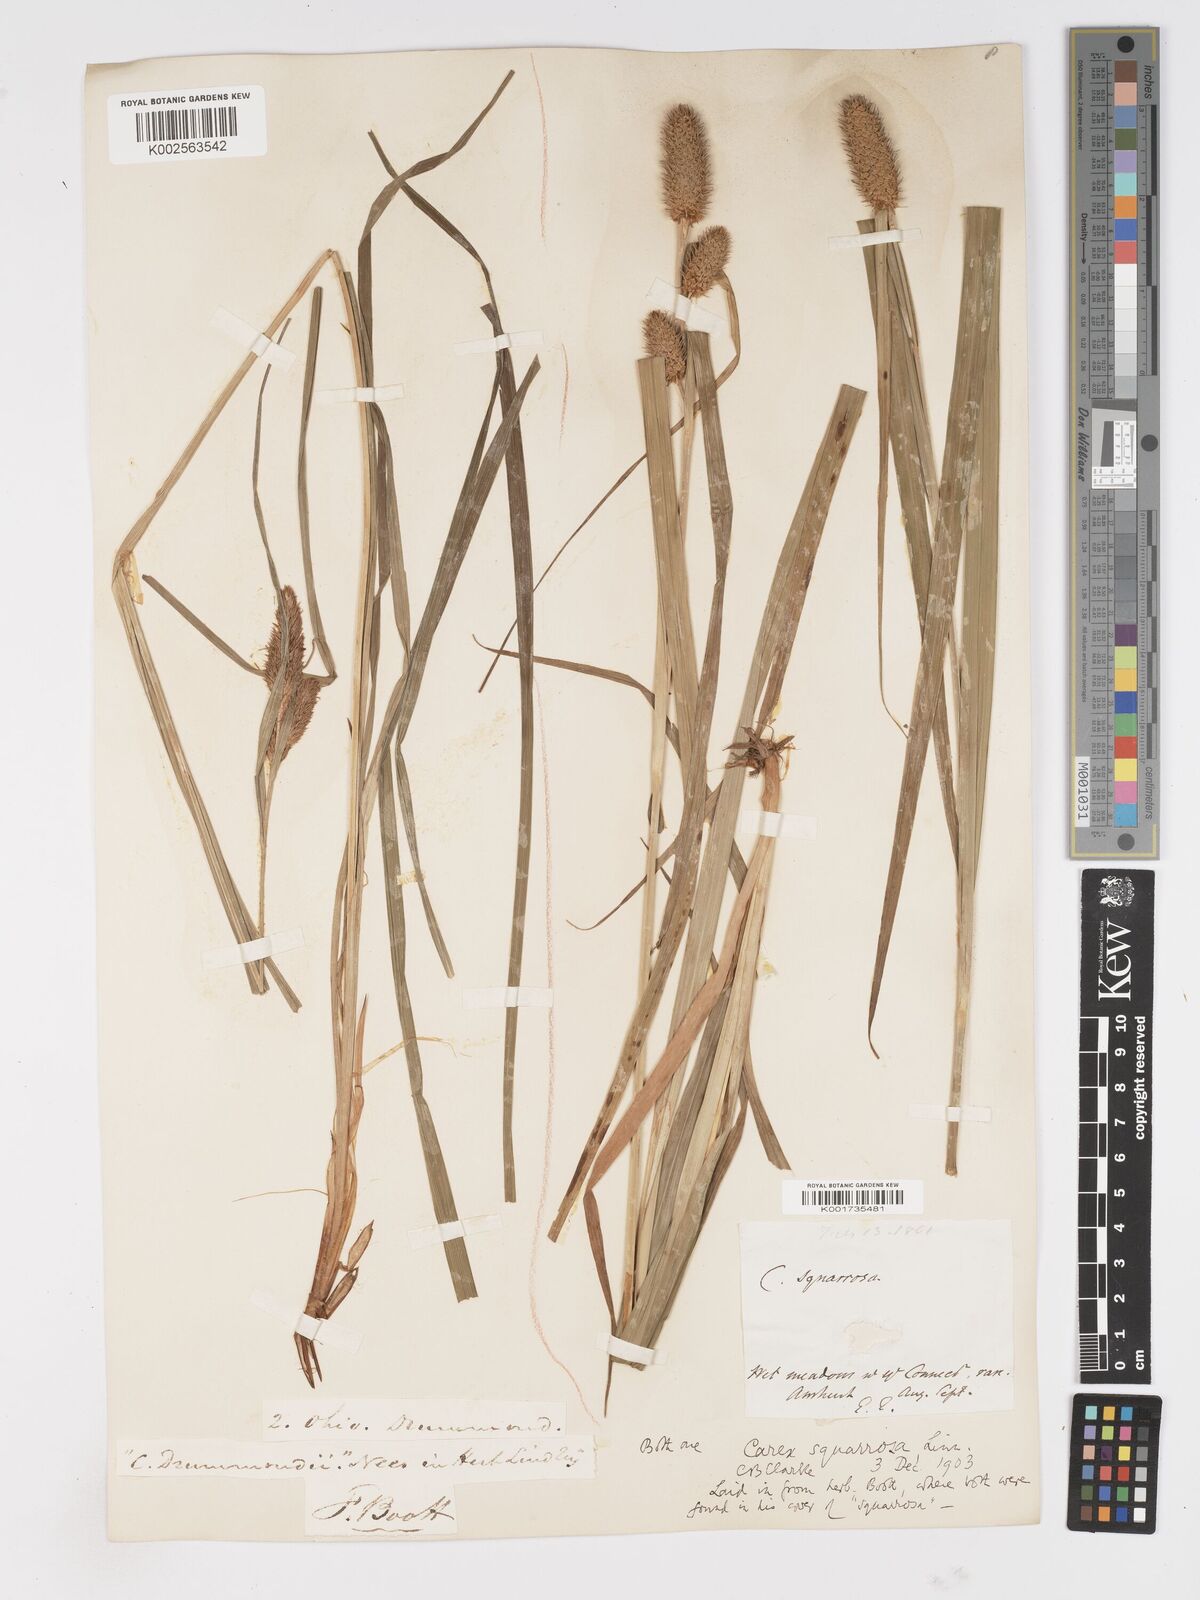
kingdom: Plantae
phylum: Tracheophyta
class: Liliopsida
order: Poales
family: Cyperaceae
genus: Carex
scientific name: Carex squarrosa
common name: Narrow-leaved cattail sedge
